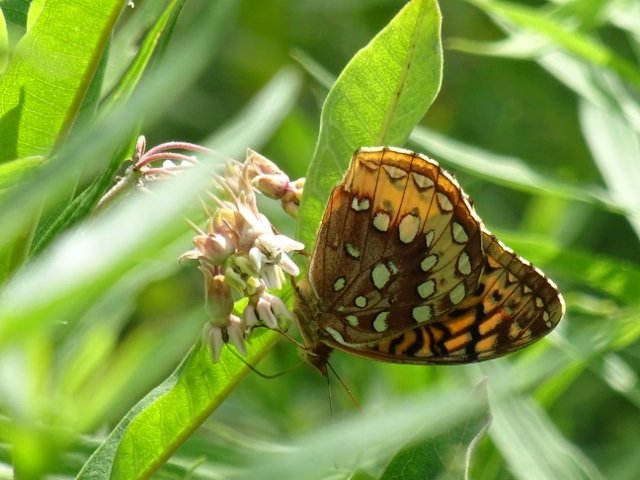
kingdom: Animalia
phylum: Arthropoda
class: Insecta
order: Lepidoptera
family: Nymphalidae
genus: Speyeria
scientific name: Speyeria cybele
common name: Great Spangled Fritillary
